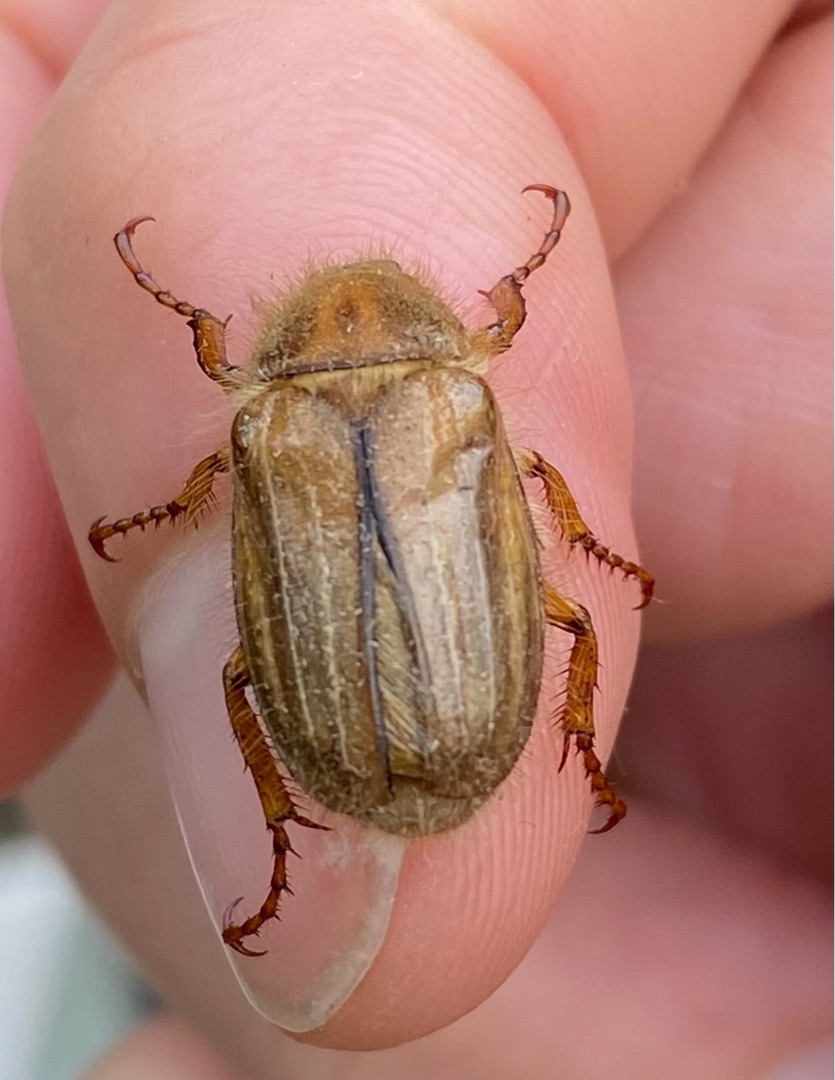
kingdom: Animalia
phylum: Arthropoda
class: Insecta
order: Coleoptera
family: Scarabaeidae
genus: Amphimallon
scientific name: Amphimallon solstitiale
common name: Sankthansoldenborre
